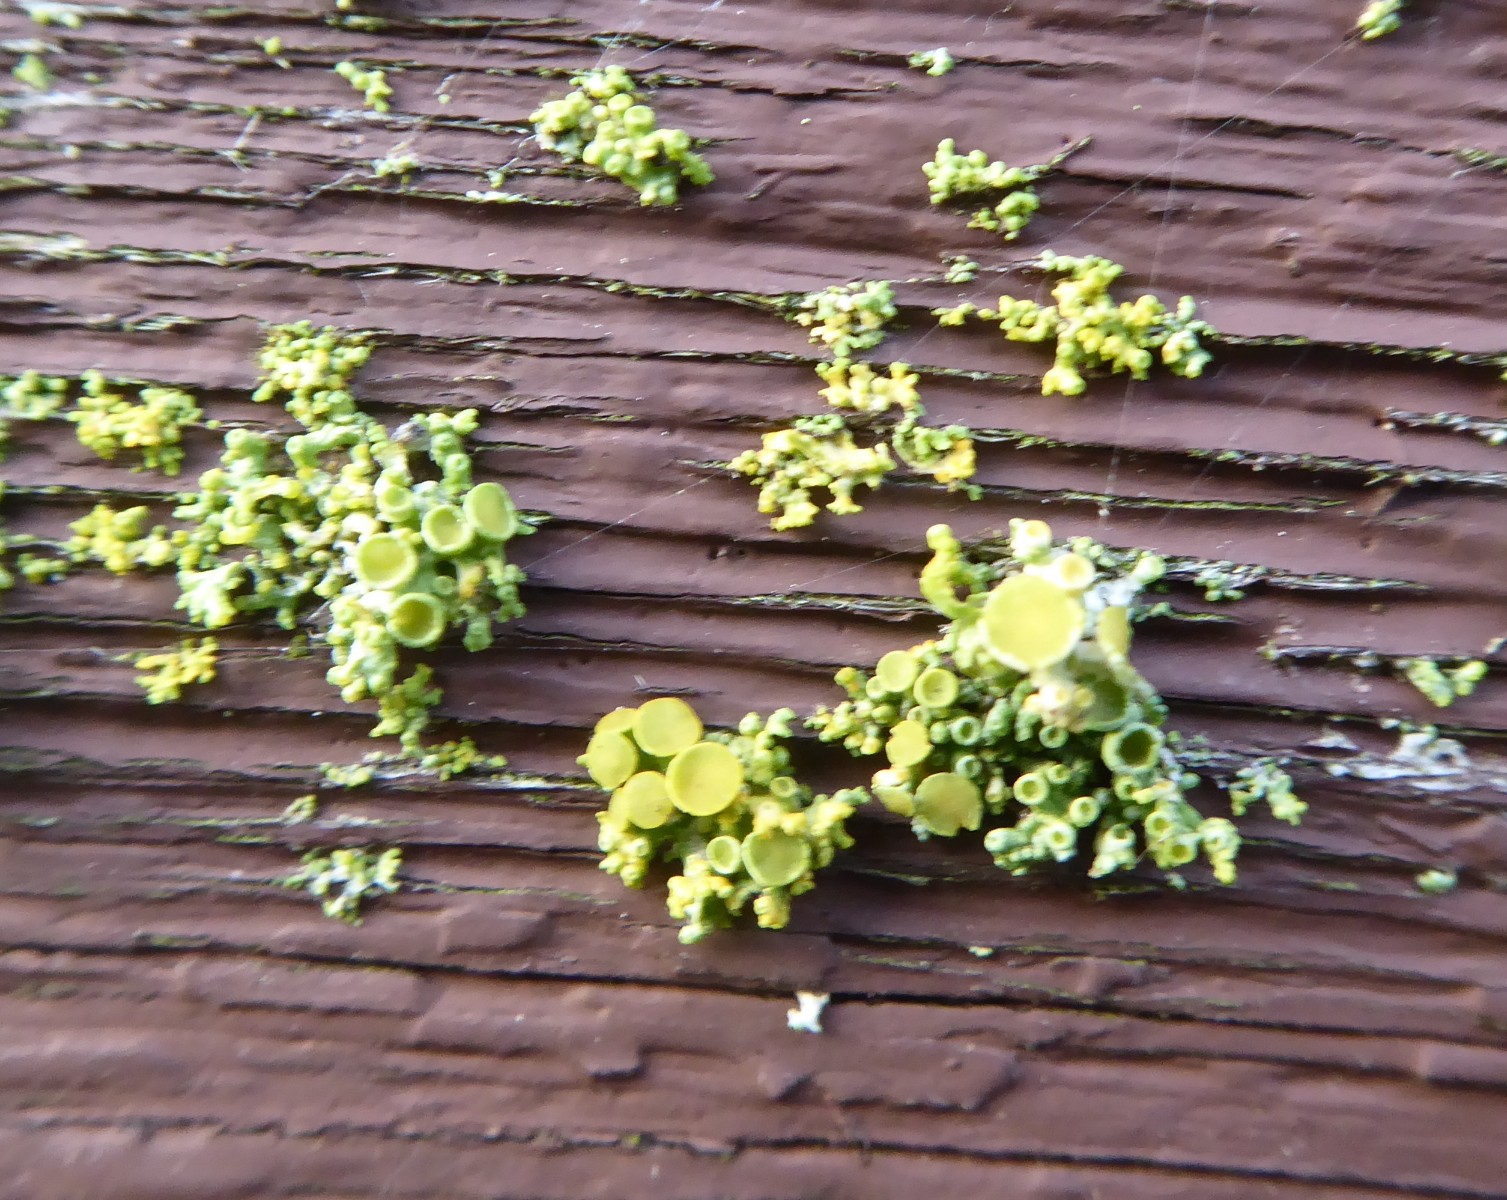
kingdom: Fungi
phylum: Ascomycota
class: Lecanoromycetes
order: Teloschistales
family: Teloschistaceae
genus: Polycauliona
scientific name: Polycauliona polycarpa
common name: mangefrugtet orangelav
